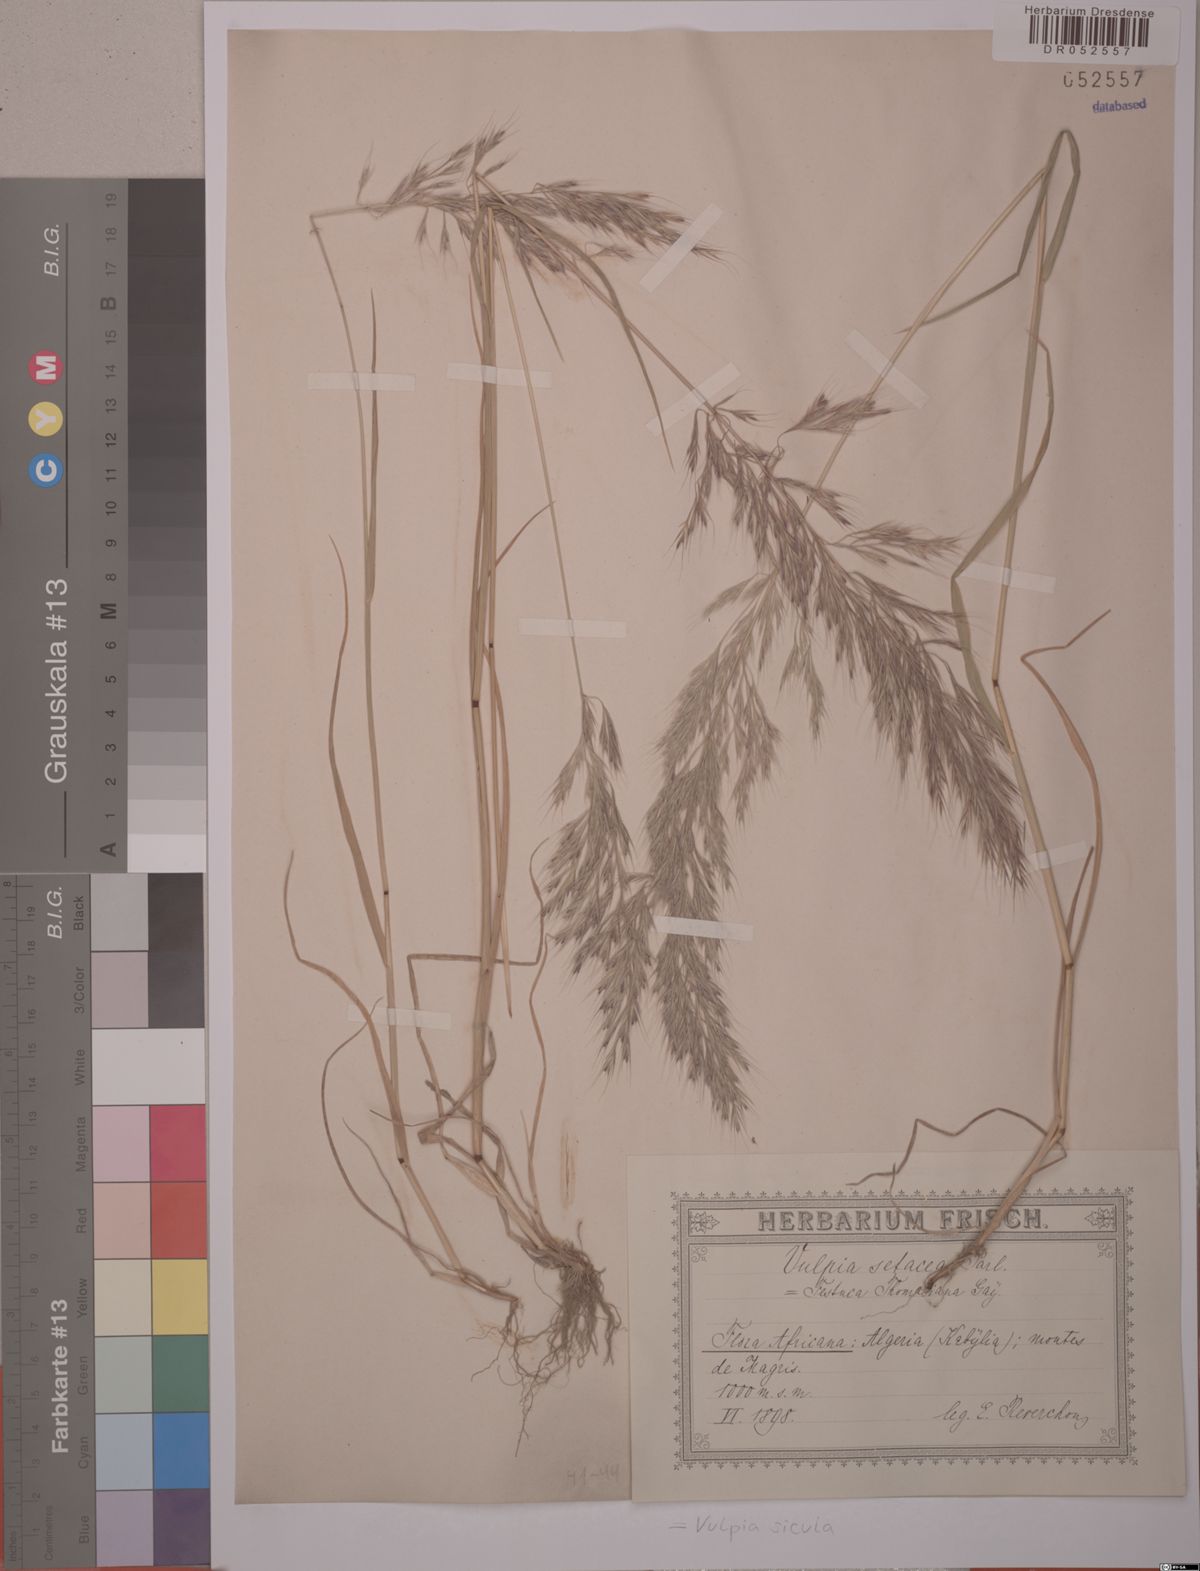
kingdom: Plantae
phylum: Tracheophyta
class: Liliopsida
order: Poales
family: Poaceae
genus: Festuca
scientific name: Festuca sicula
